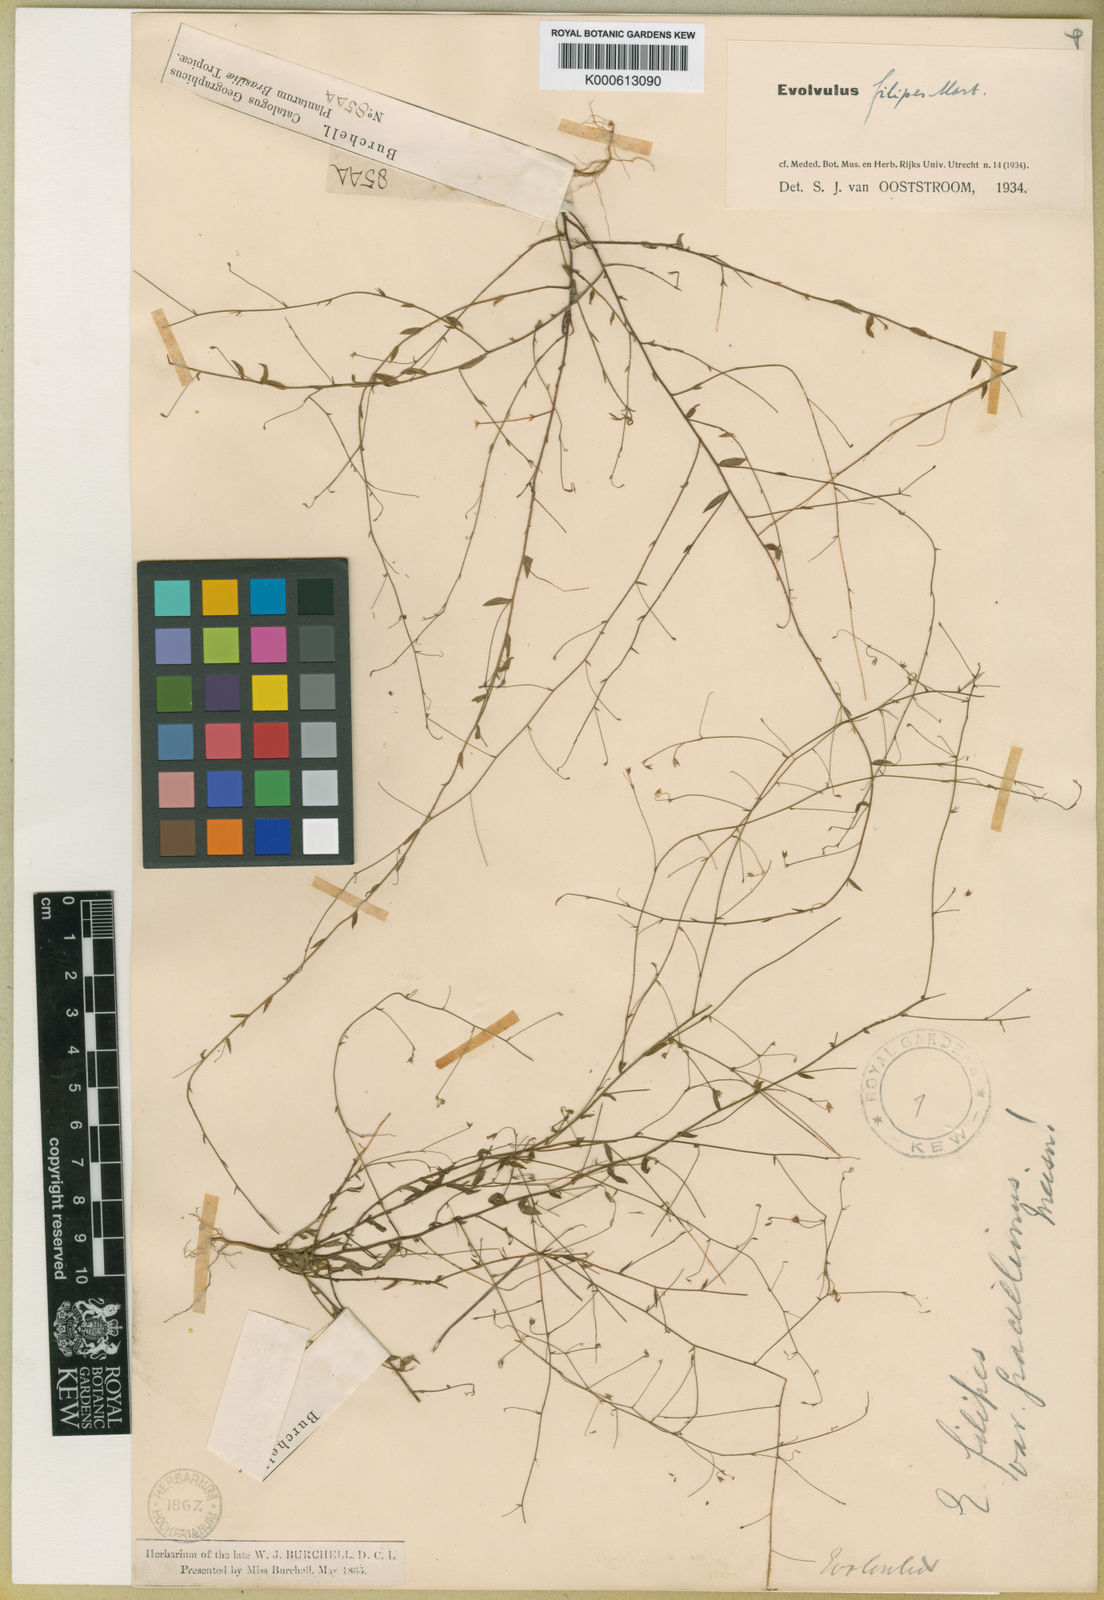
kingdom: Plantae
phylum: Tracheophyta
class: Magnoliopsida
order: Solanales
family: Convolvulaceae
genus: Evolvulus
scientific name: Evolvulus filipes
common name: Maryland dwarf morning-glory
